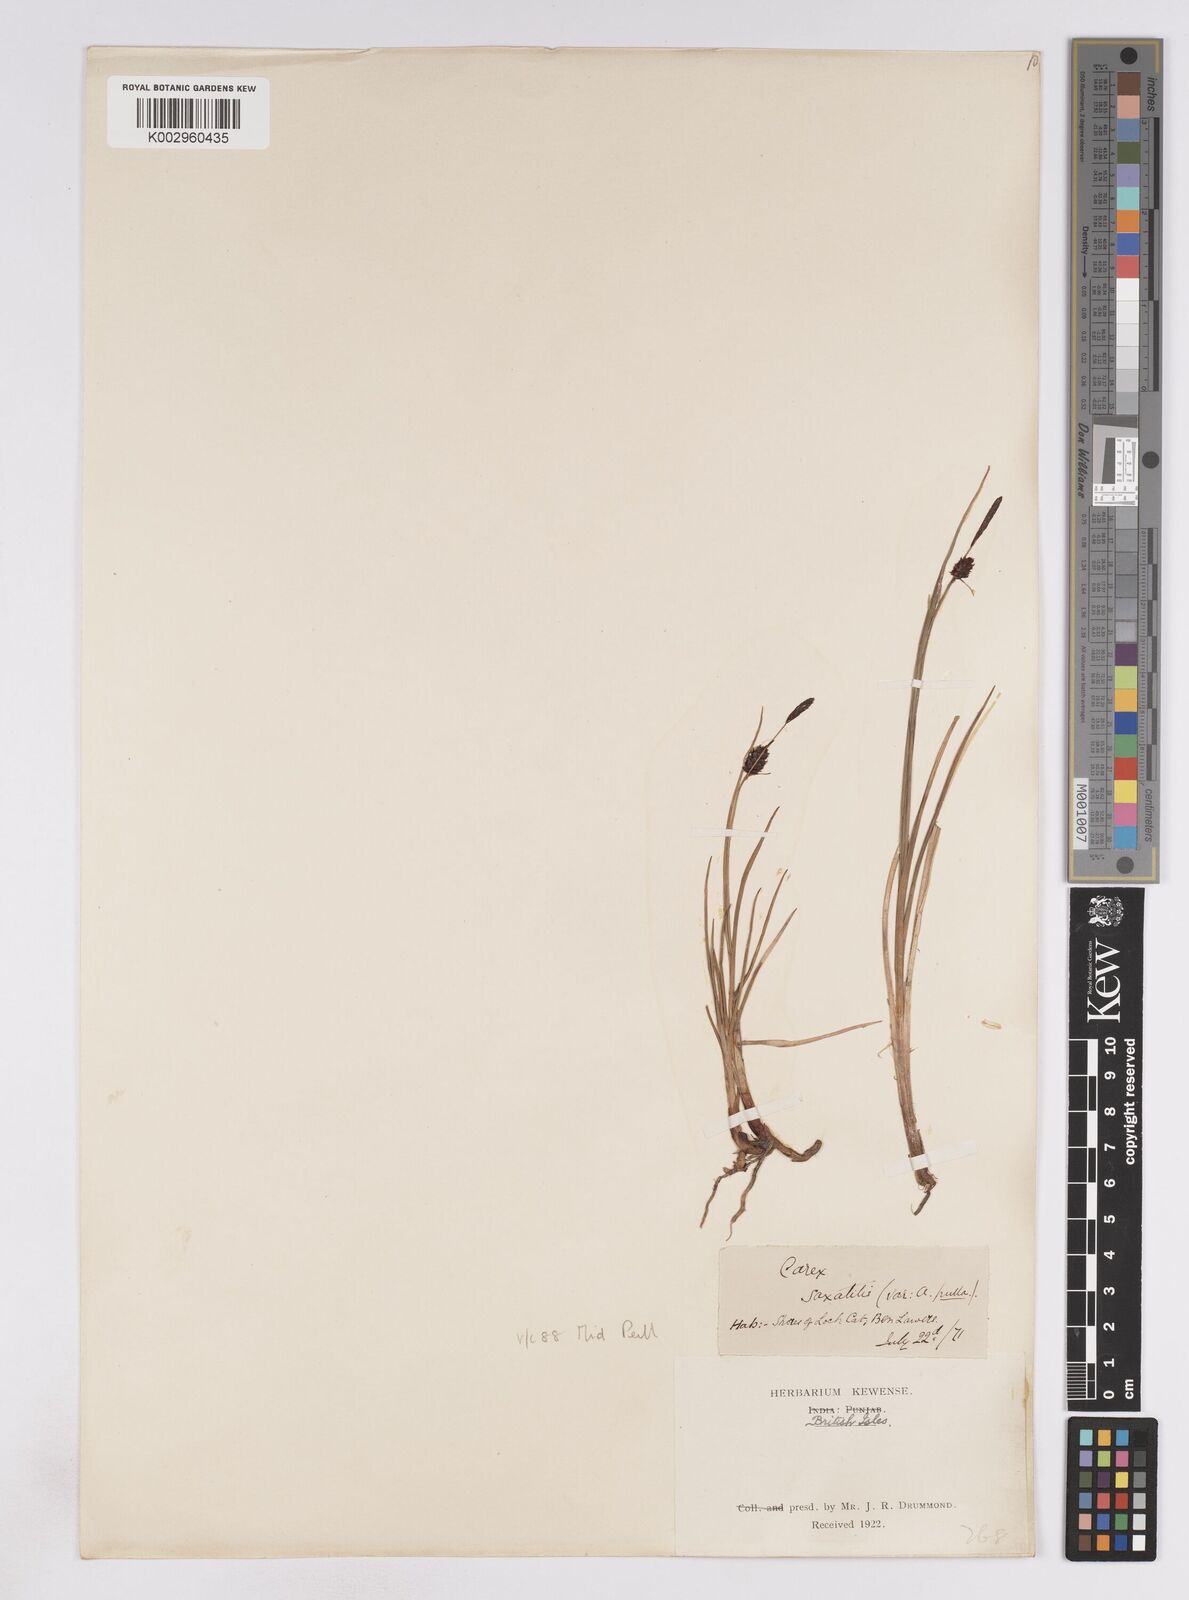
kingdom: Plantae
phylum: Tracheophyta
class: Liliopsida
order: Poales
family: Cyperaceae
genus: Carex
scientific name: Carex saxatilis
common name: Russet sedge
